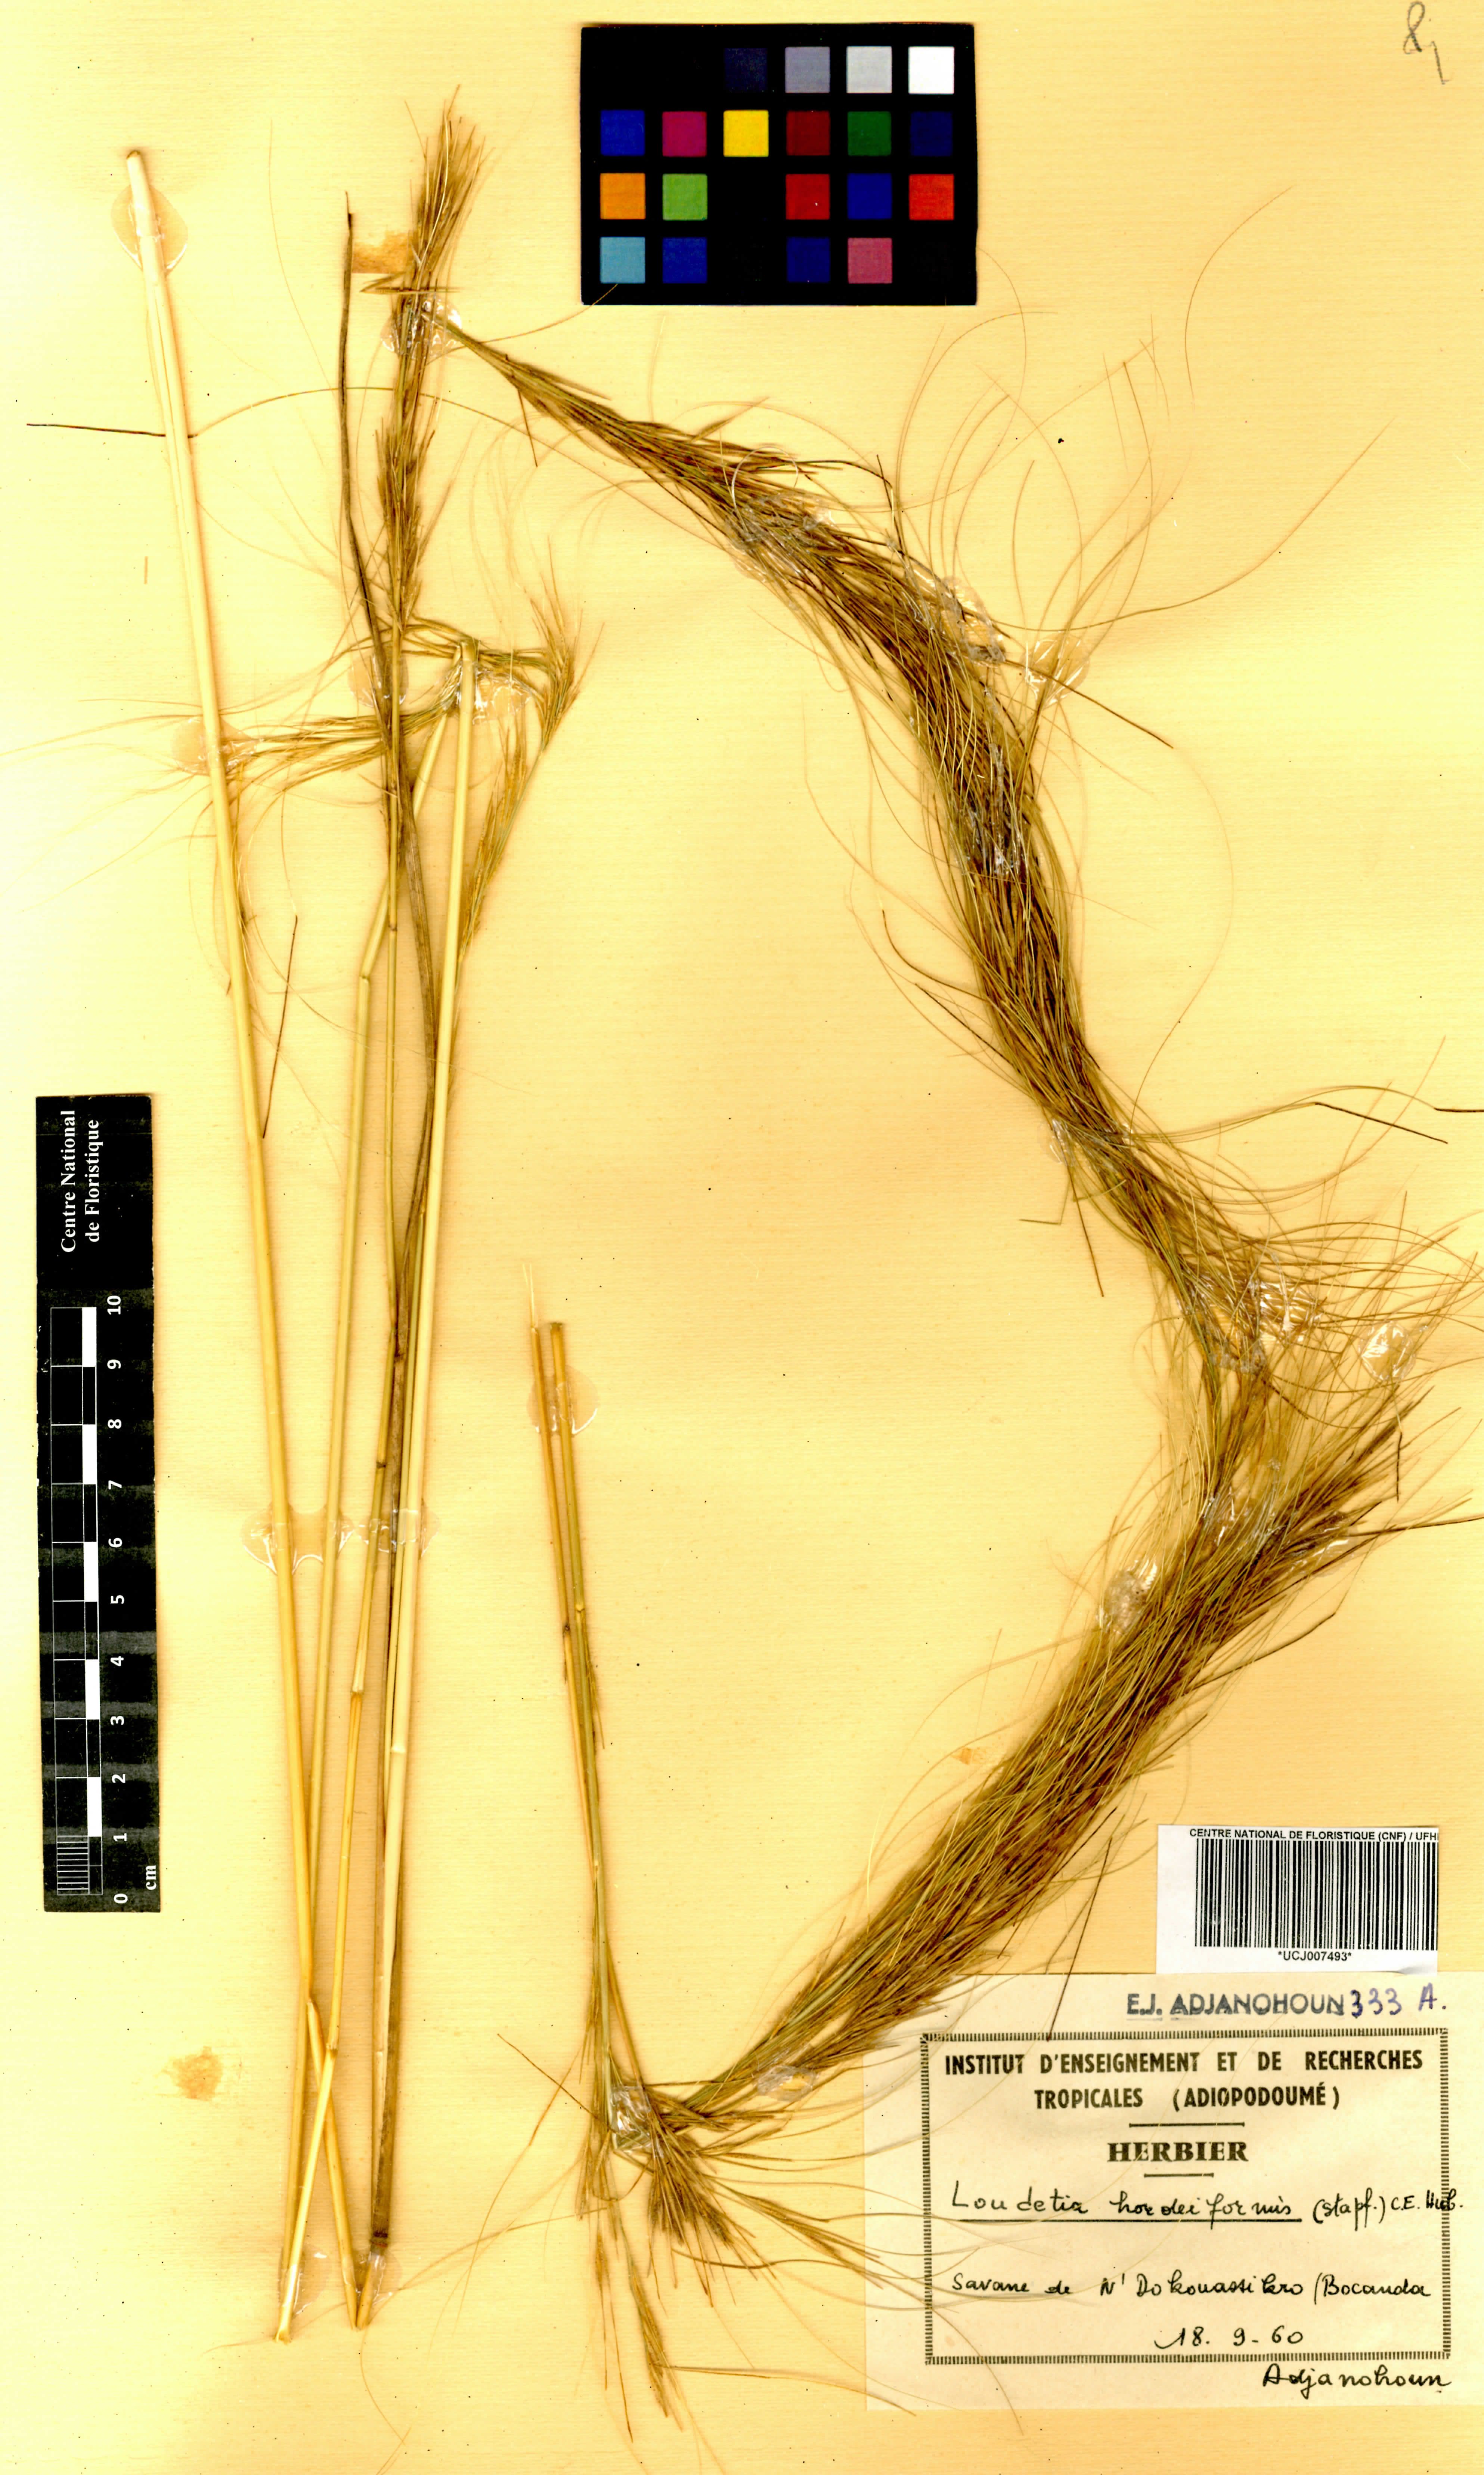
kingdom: Plantae
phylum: Tracheophyta
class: Liliopsida
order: Poales
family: Poaceae
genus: Loudetia
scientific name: Loudetia hordeiformis
